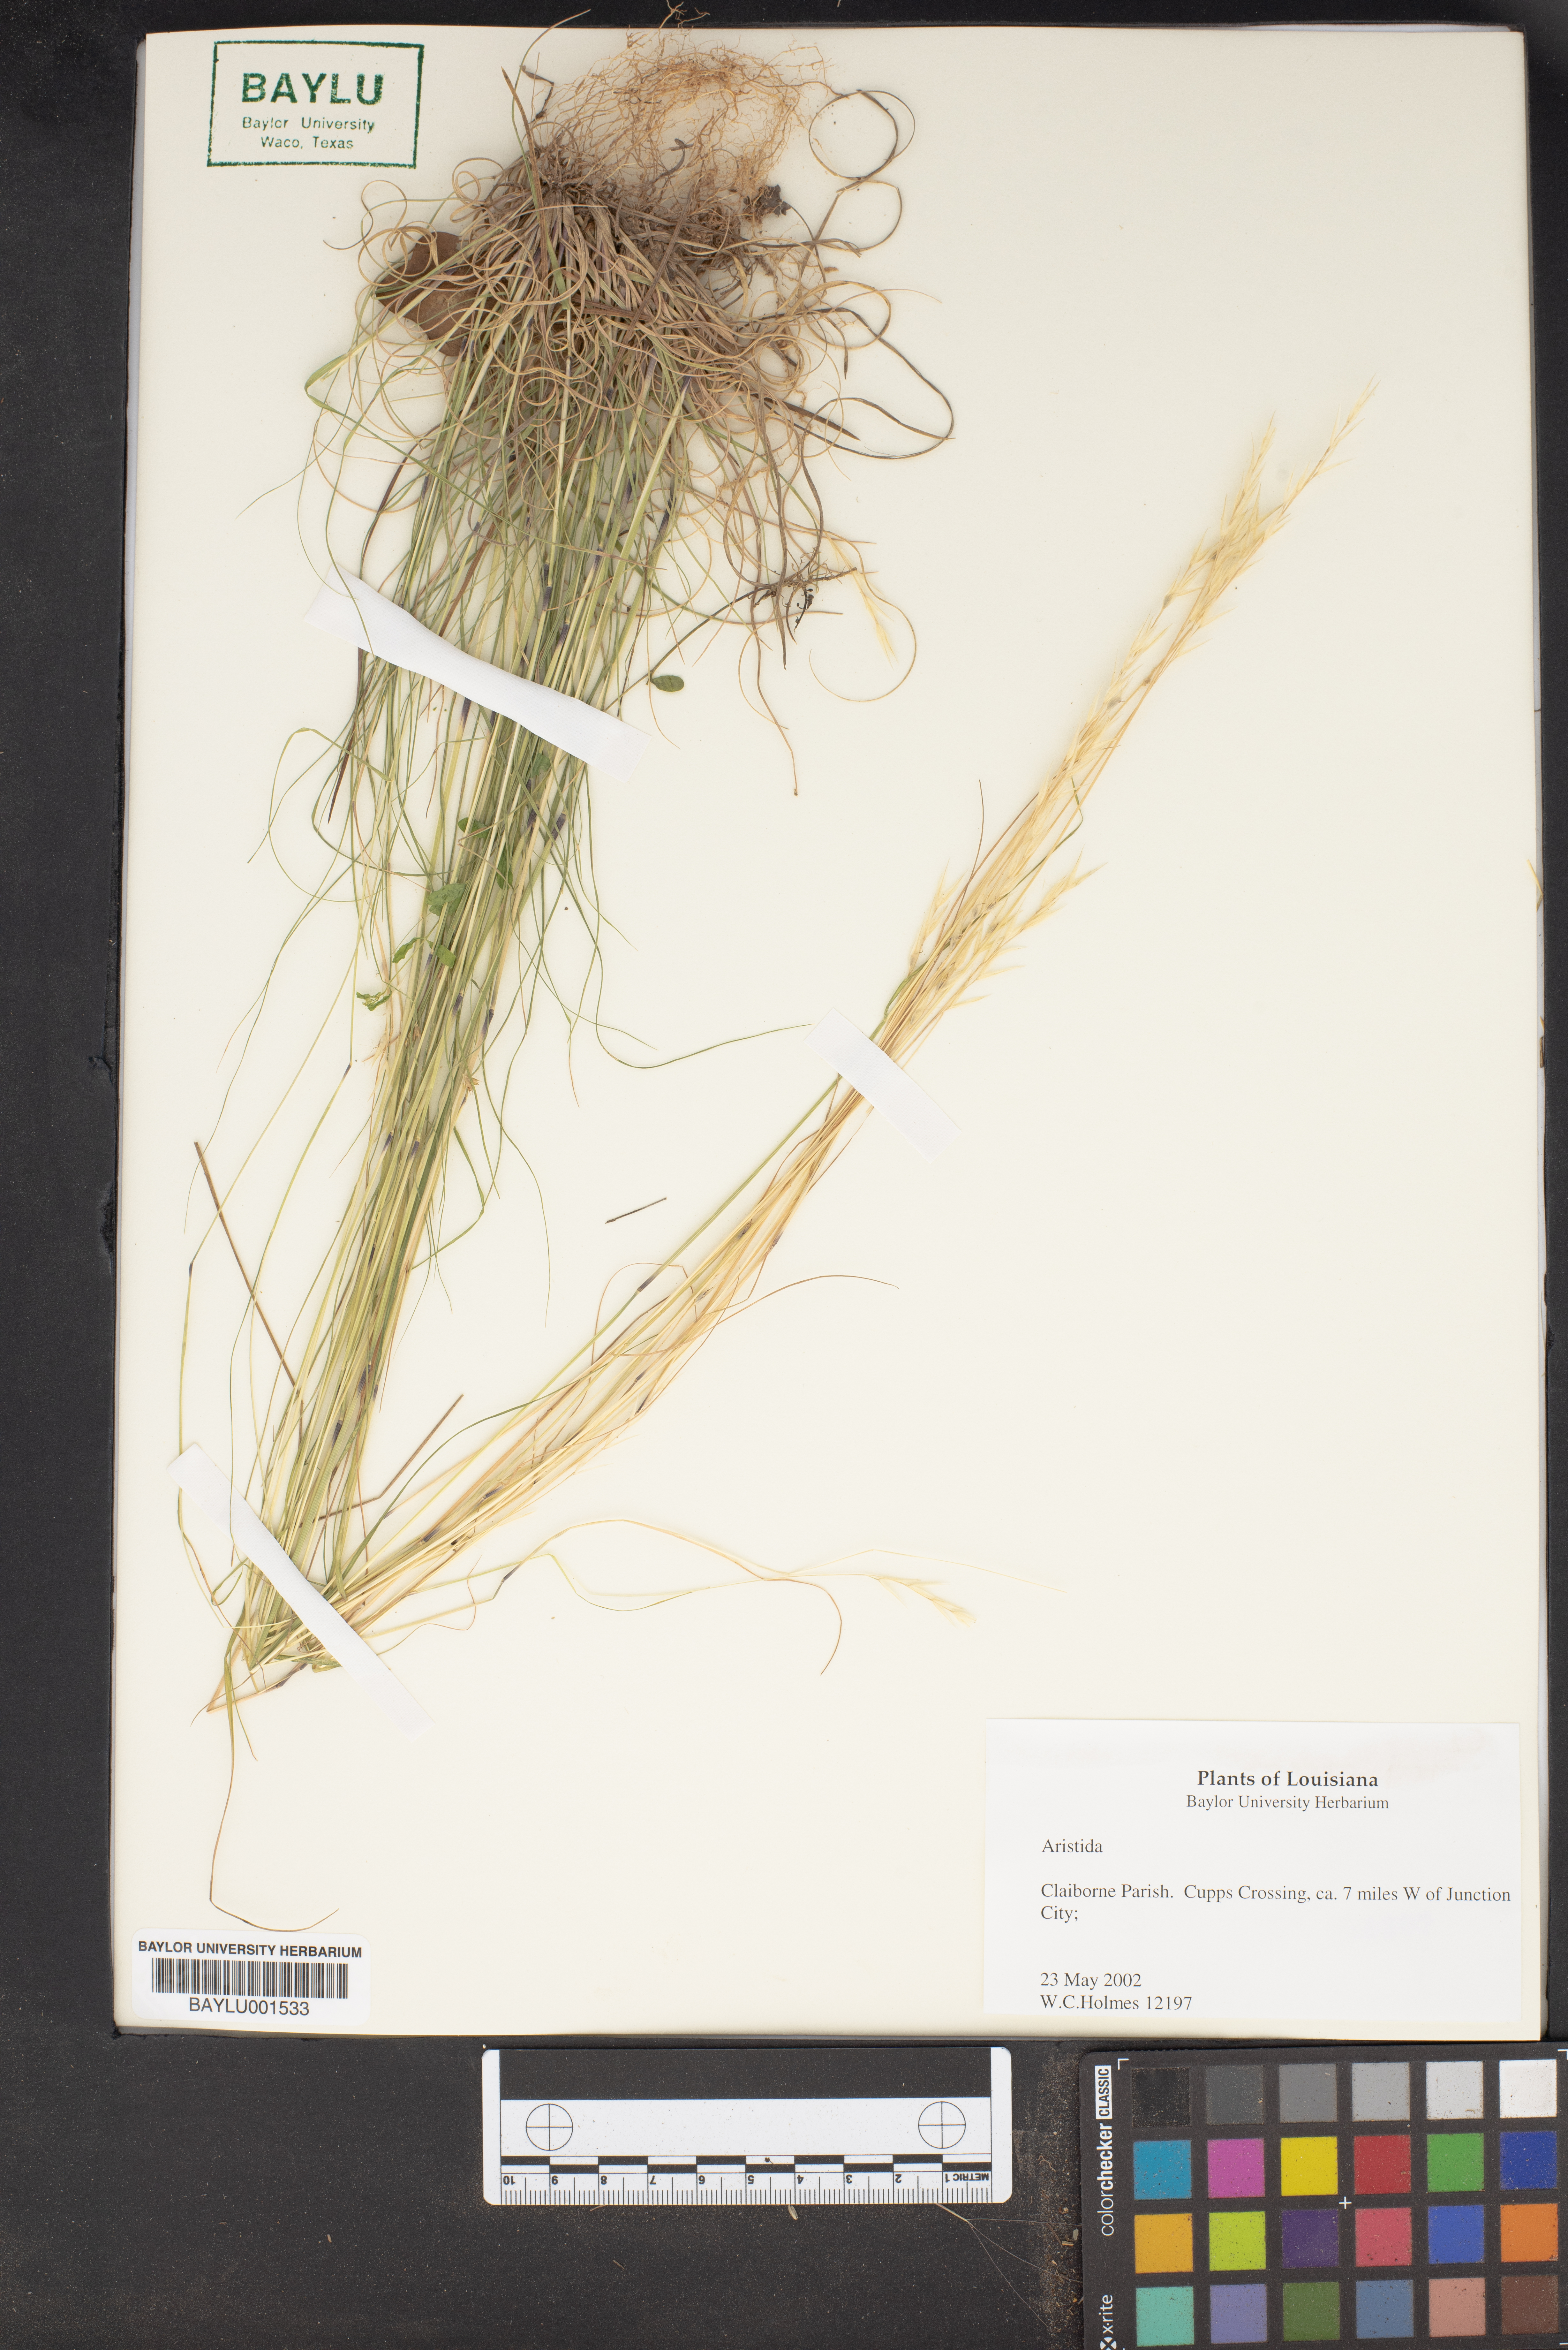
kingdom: Plantae
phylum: Tracheophyta
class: Liliopsida
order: Poales
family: Poaceae
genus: Aristida
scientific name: Aristida
